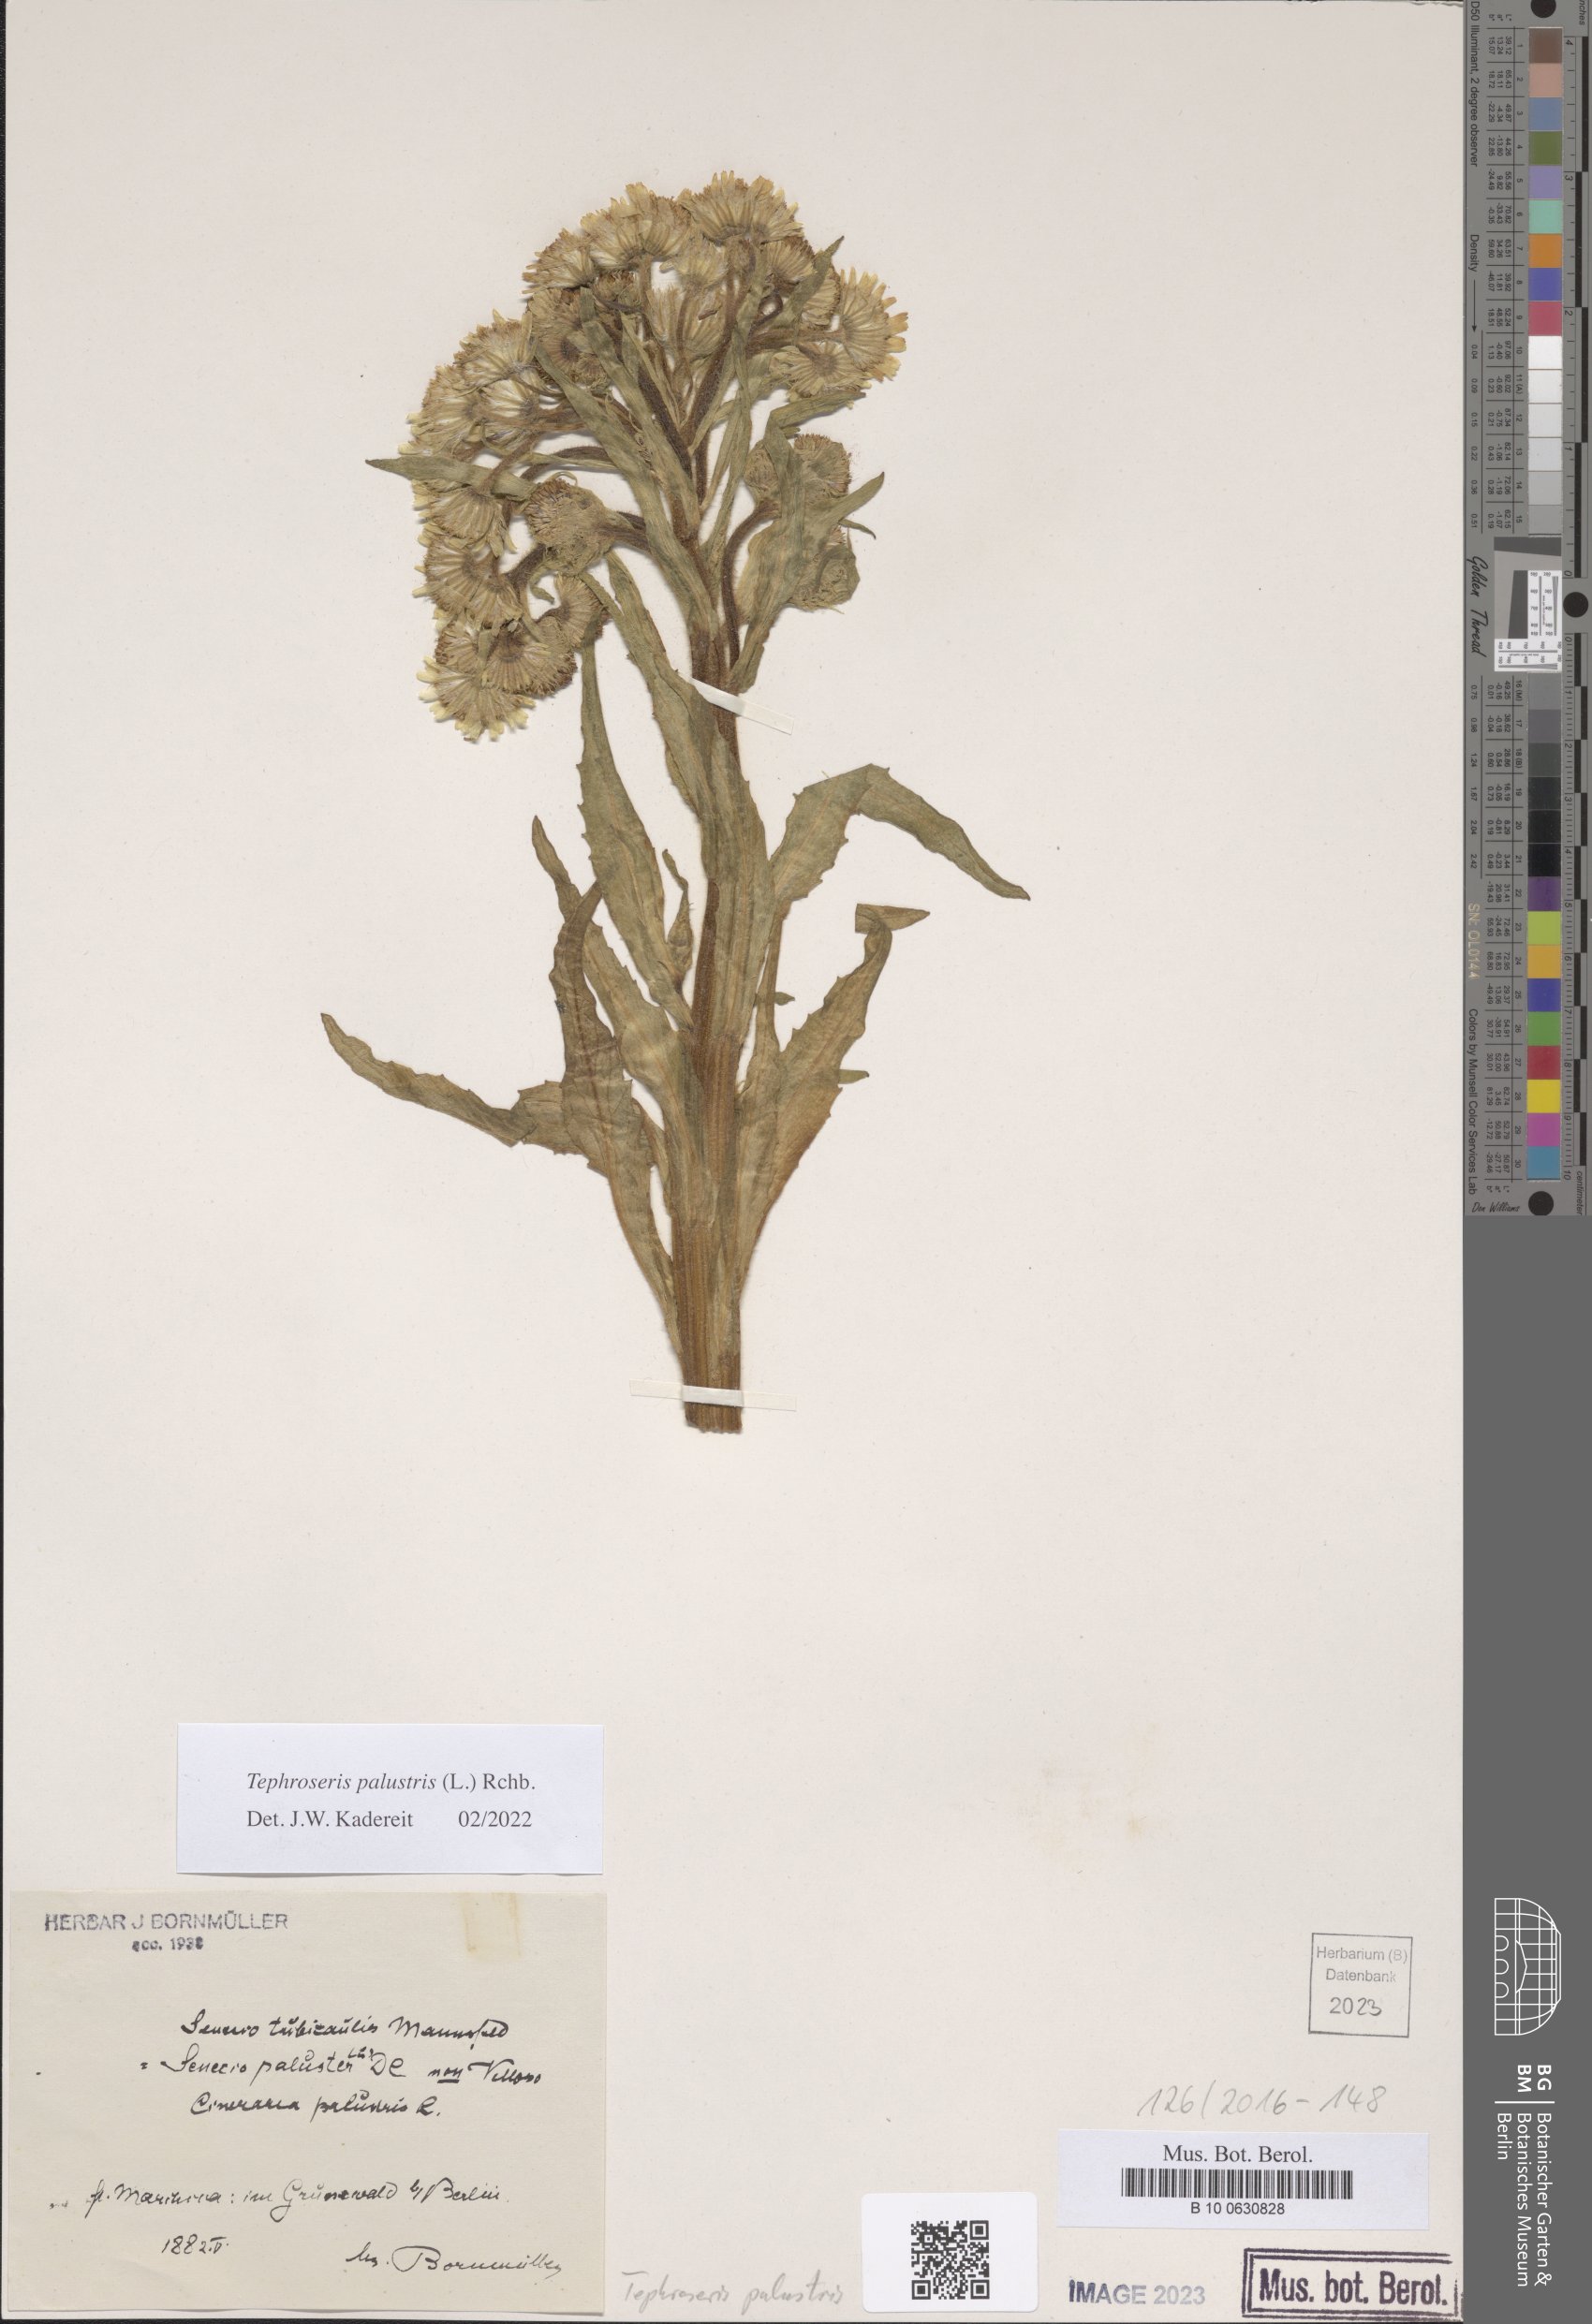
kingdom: Plantae
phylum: Tracheophyta
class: Magnoliopsida
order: Asterales
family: Asteraceae
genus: Tephroseris
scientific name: Tephroseris palustris
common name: Marsh fleawort
